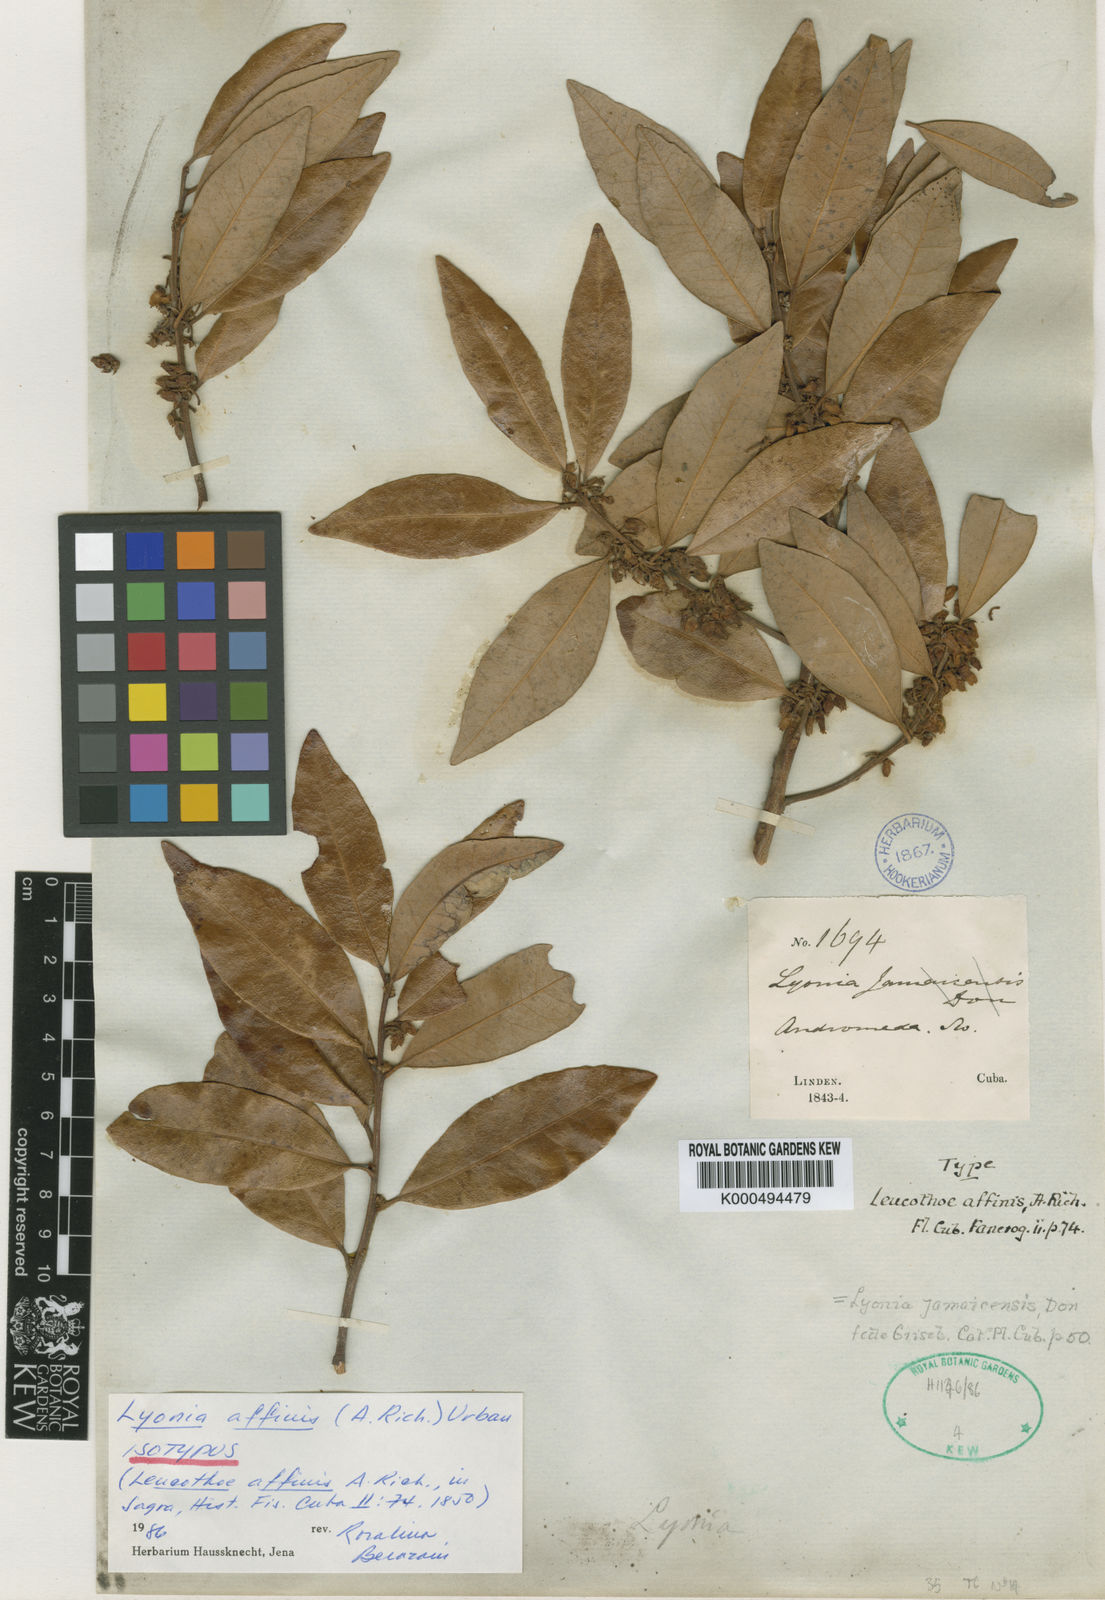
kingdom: Plantae
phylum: Tracheophyta
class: Magnoliopsida
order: Ericales
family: Ericaceae
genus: Lyonia
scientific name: Lyonia affinis
